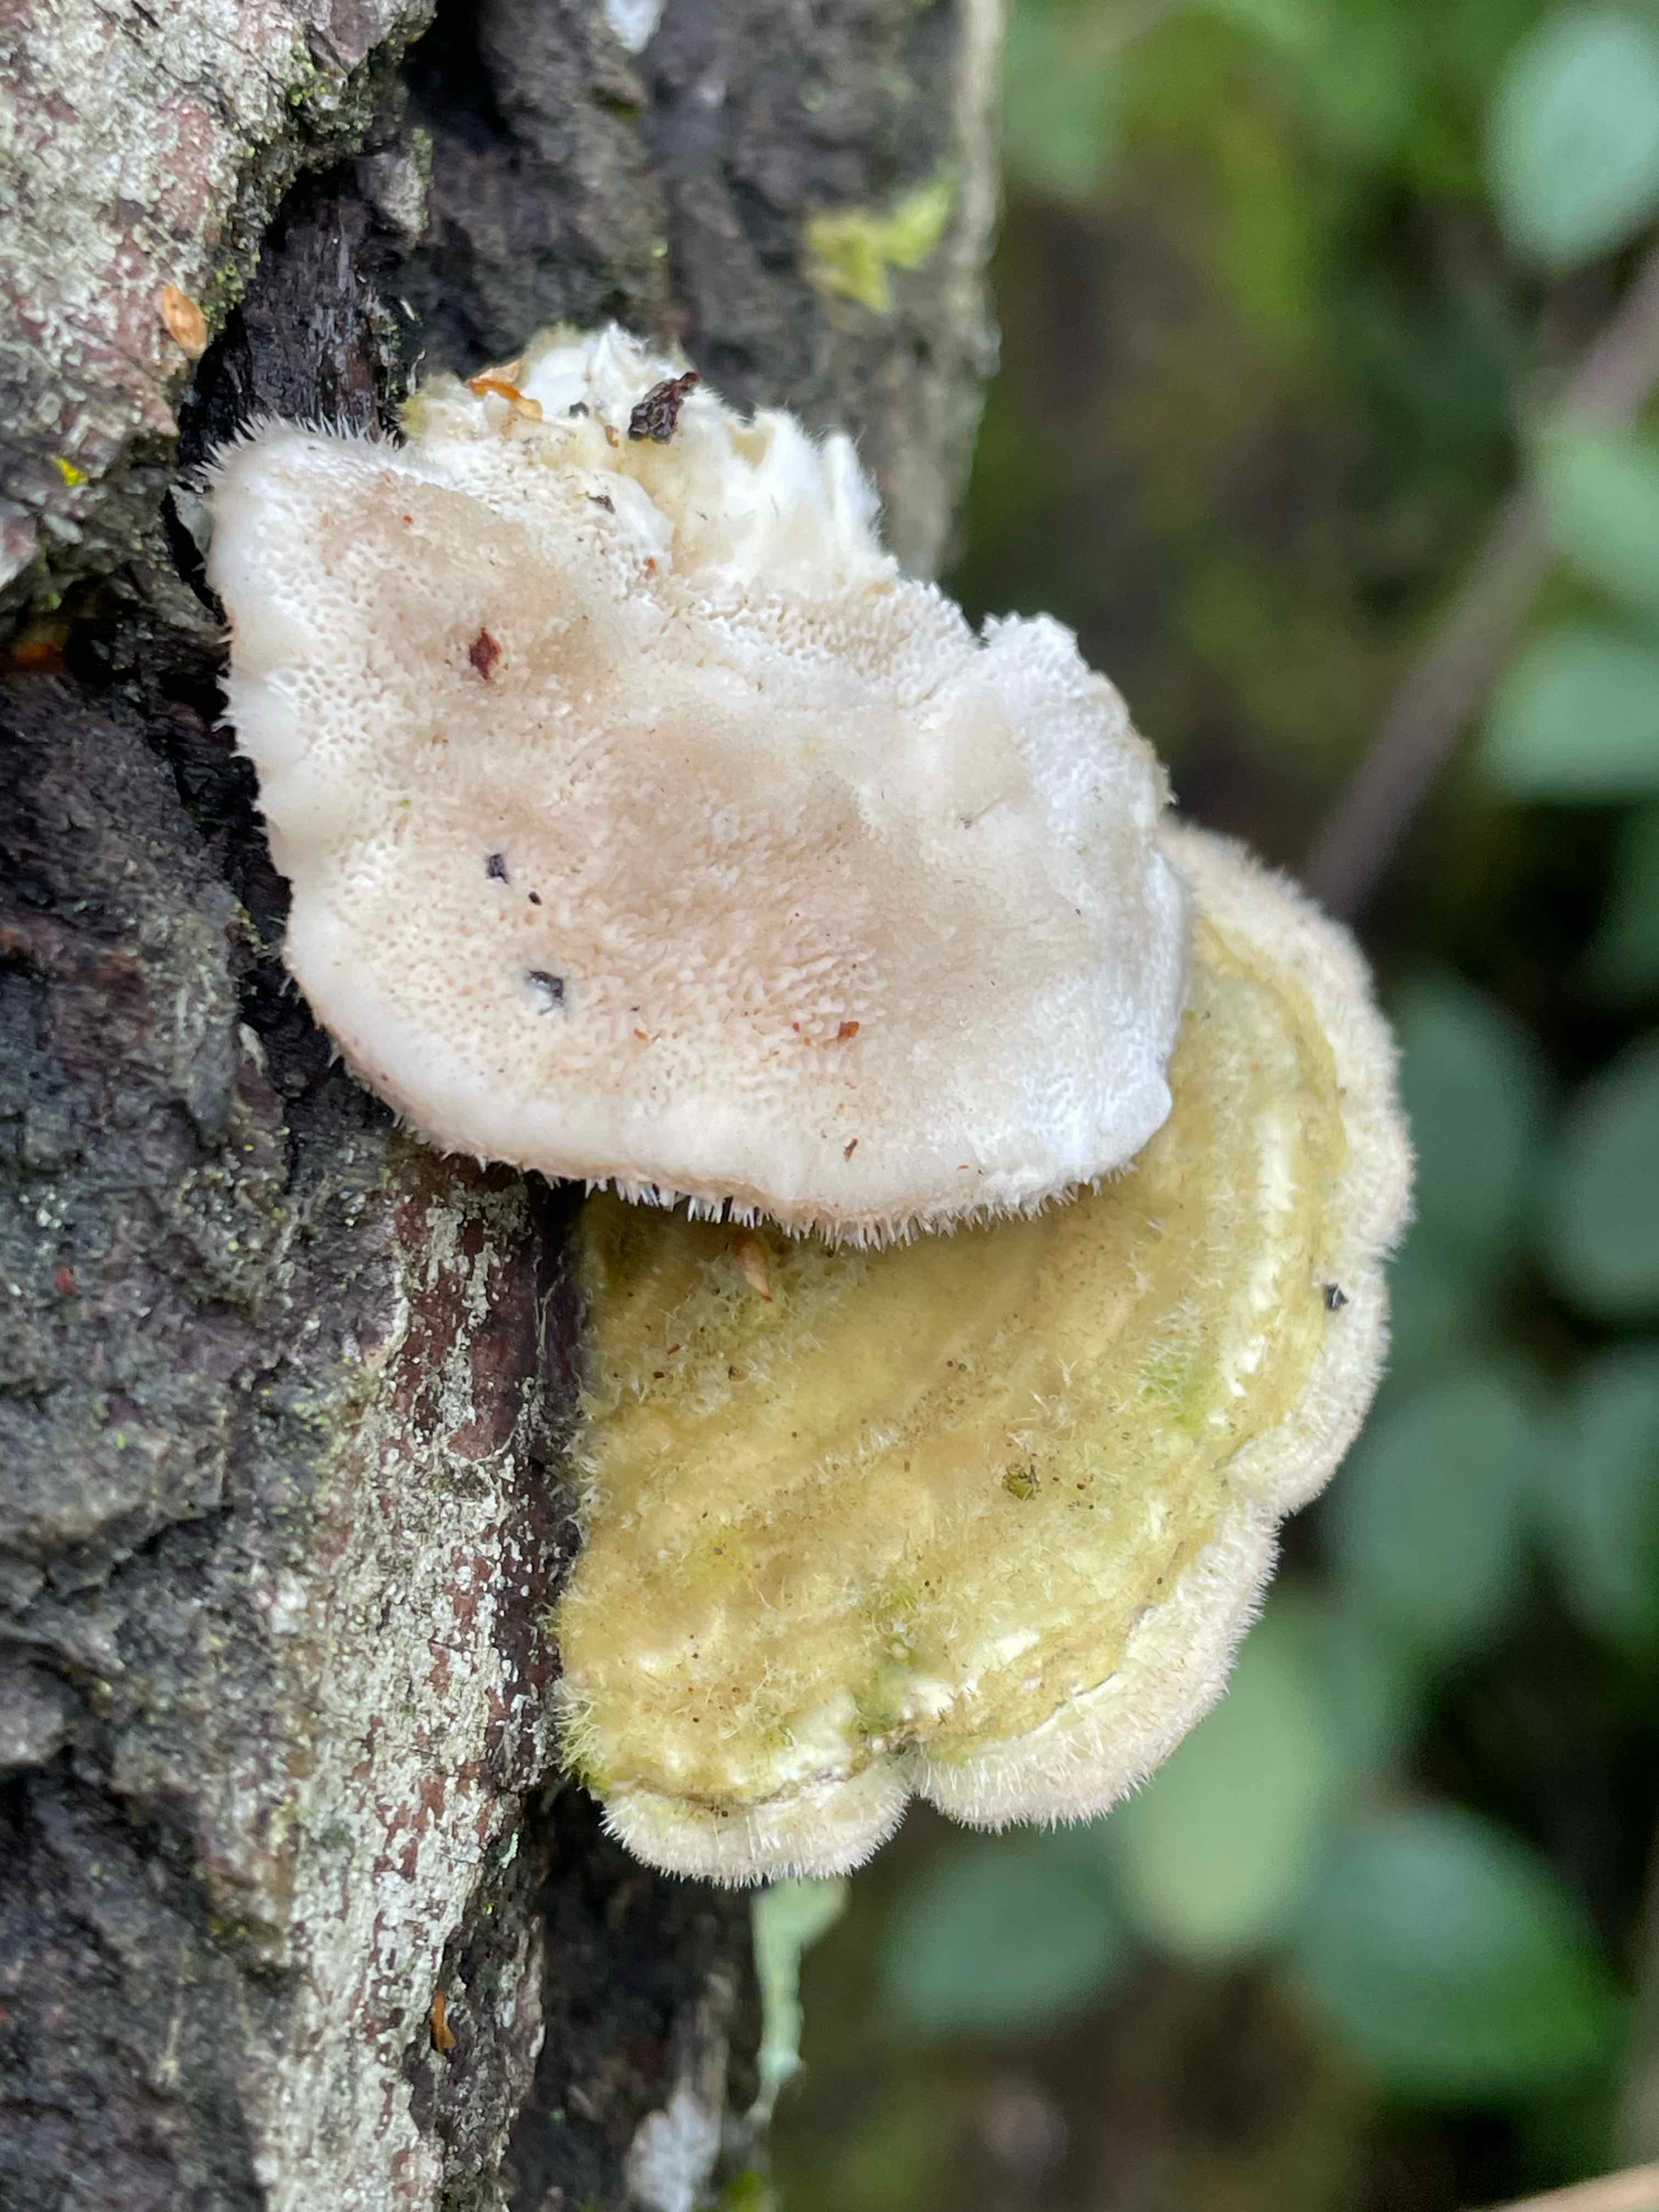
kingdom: Fungi
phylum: Basidiomycota
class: Agaricomycetes
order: Polyporales
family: Polyporaceae
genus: Trametes
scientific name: Trametes hirsuta
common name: håret læderporesvamp
